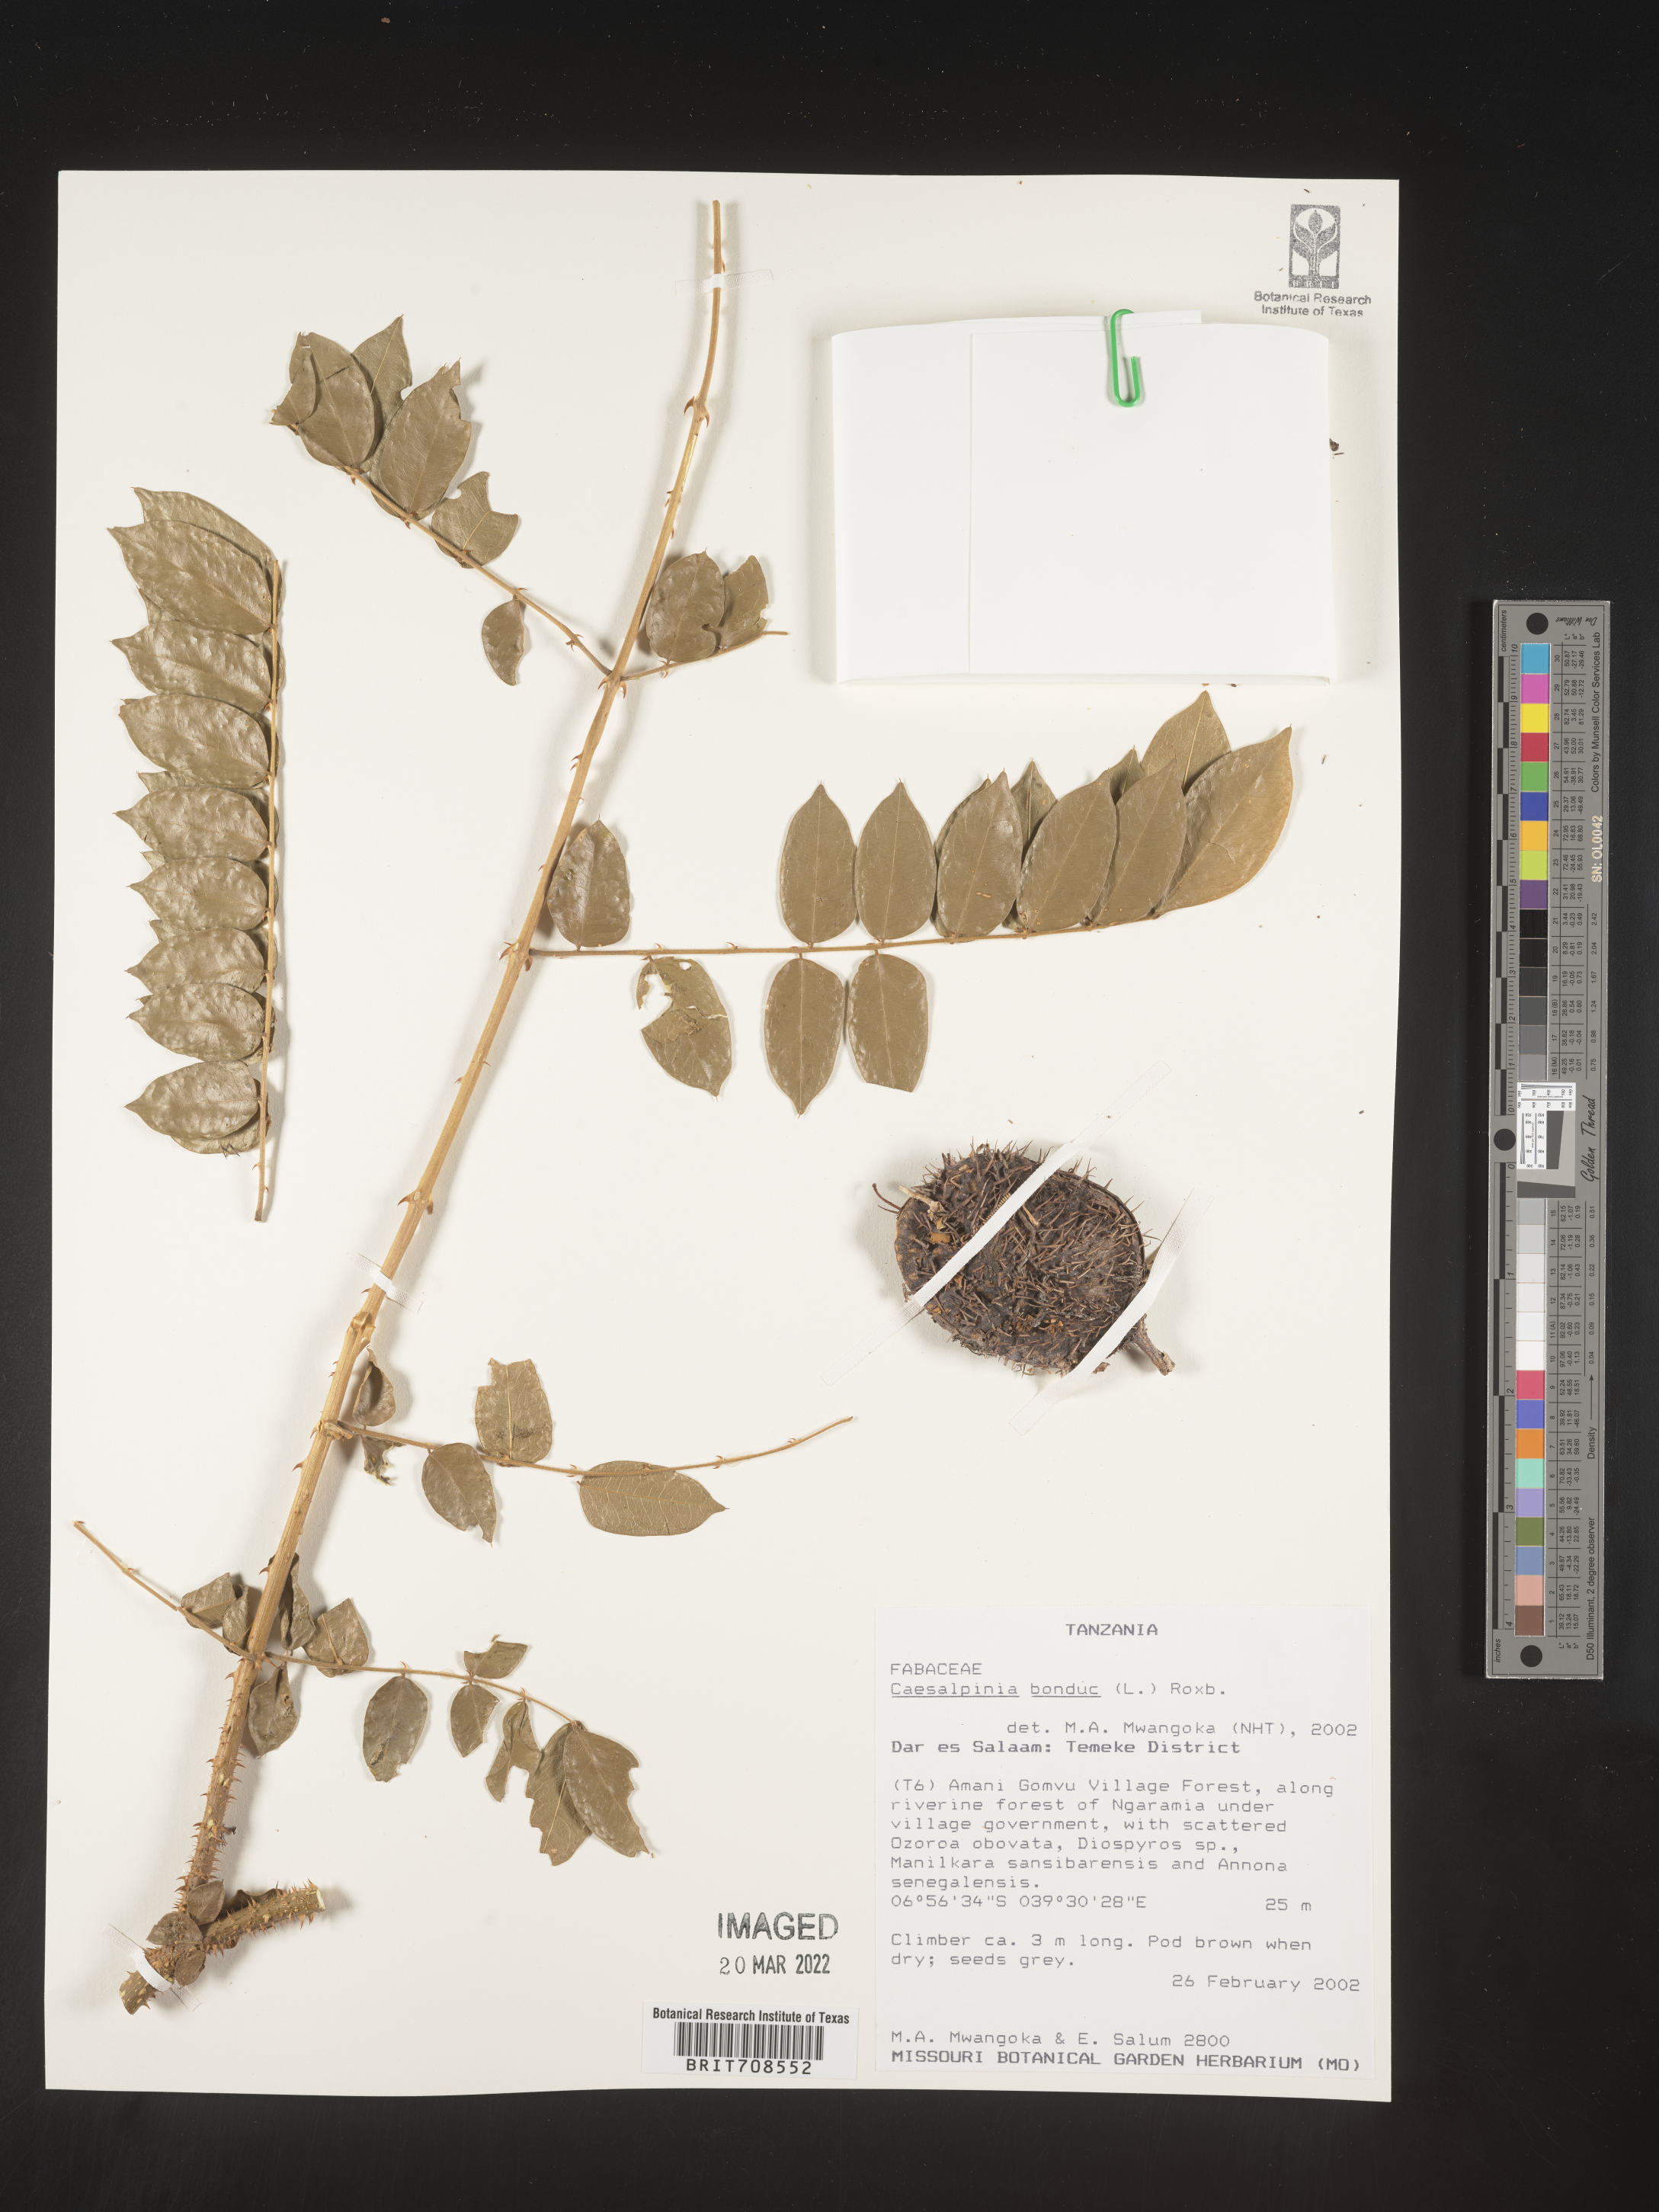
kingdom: Plantae
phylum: Tracheophyta
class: Magnoliopsida
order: Fabales
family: Fabaceae
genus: Caesalpinia
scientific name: Caesalpinia
